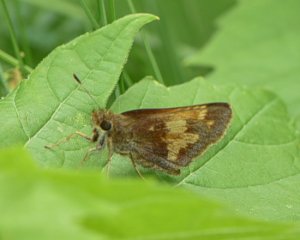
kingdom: Animalia
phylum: Arthropoda
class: Insecta
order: Lepidoptera
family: Hesperiidae
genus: Lon
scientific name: Lon hobomok
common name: Hobomok Skipper
